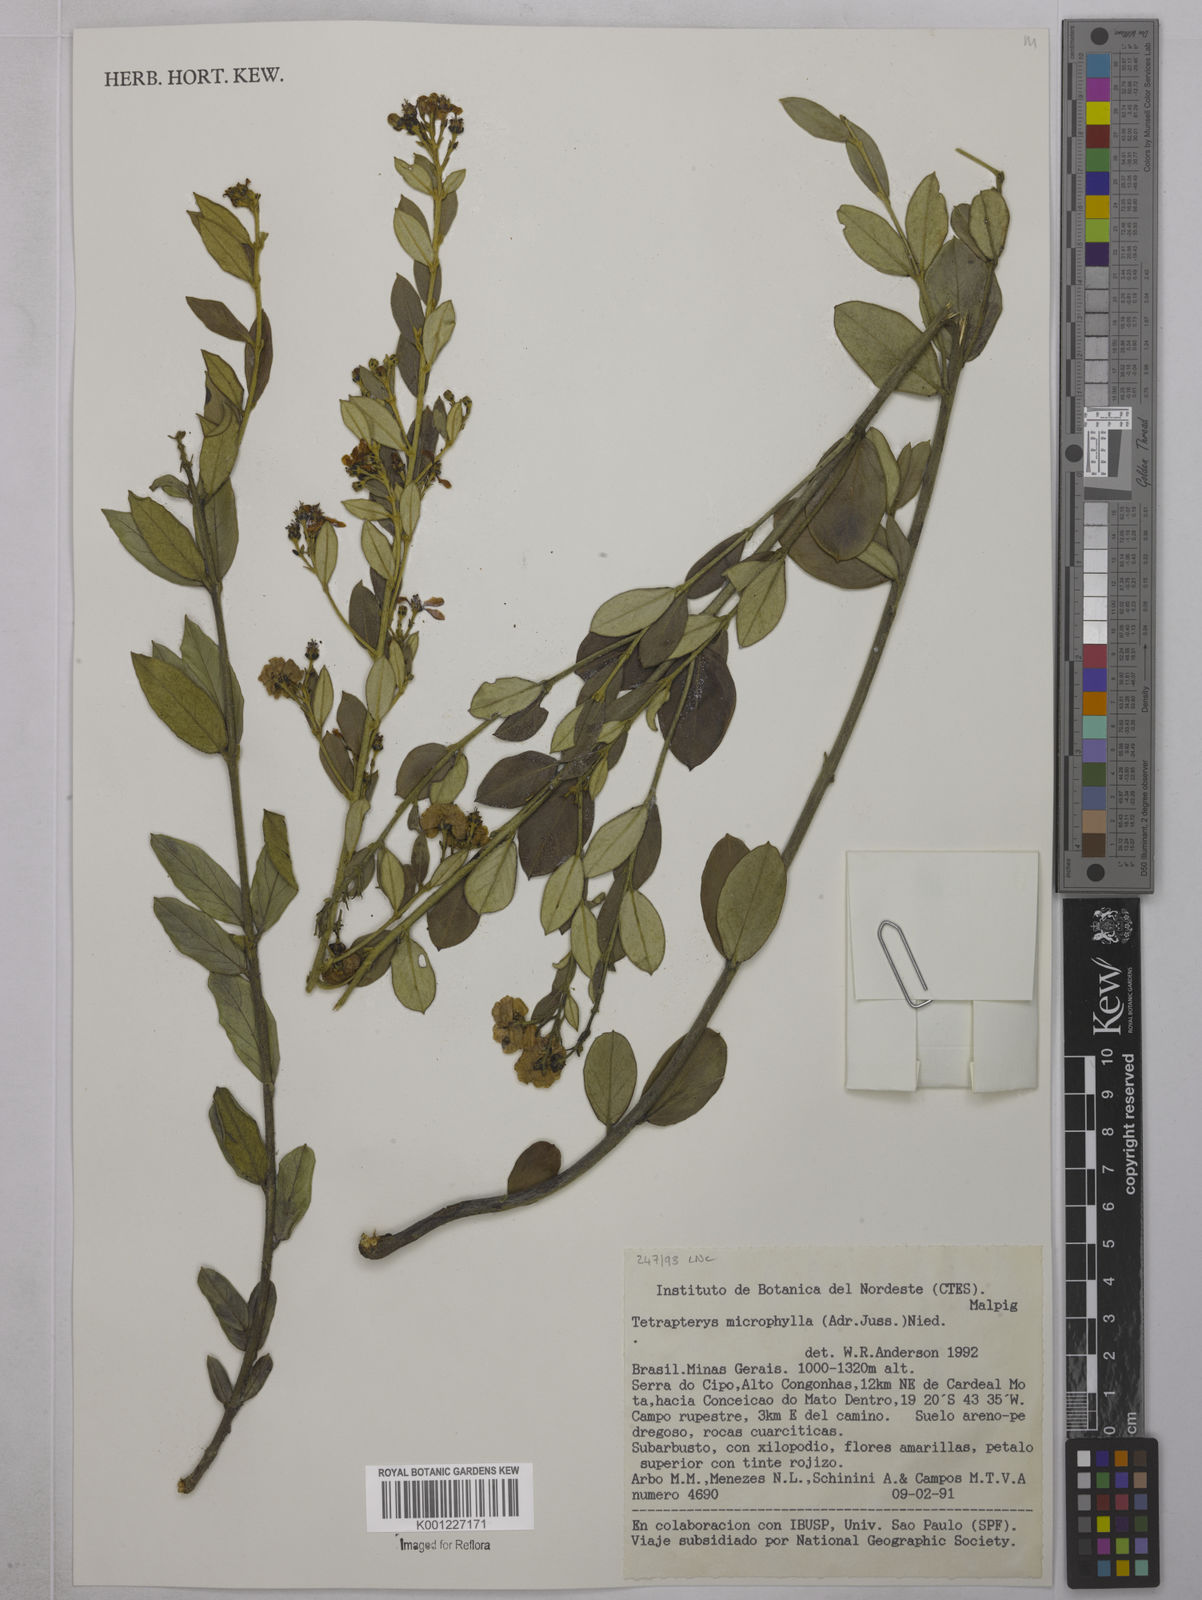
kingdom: Plantae
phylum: Tracheophyta
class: Magnoliopsida
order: Malpighiales
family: Malpighiaceae
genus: Glicophyllum
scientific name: Glicophyllum microphyllum
